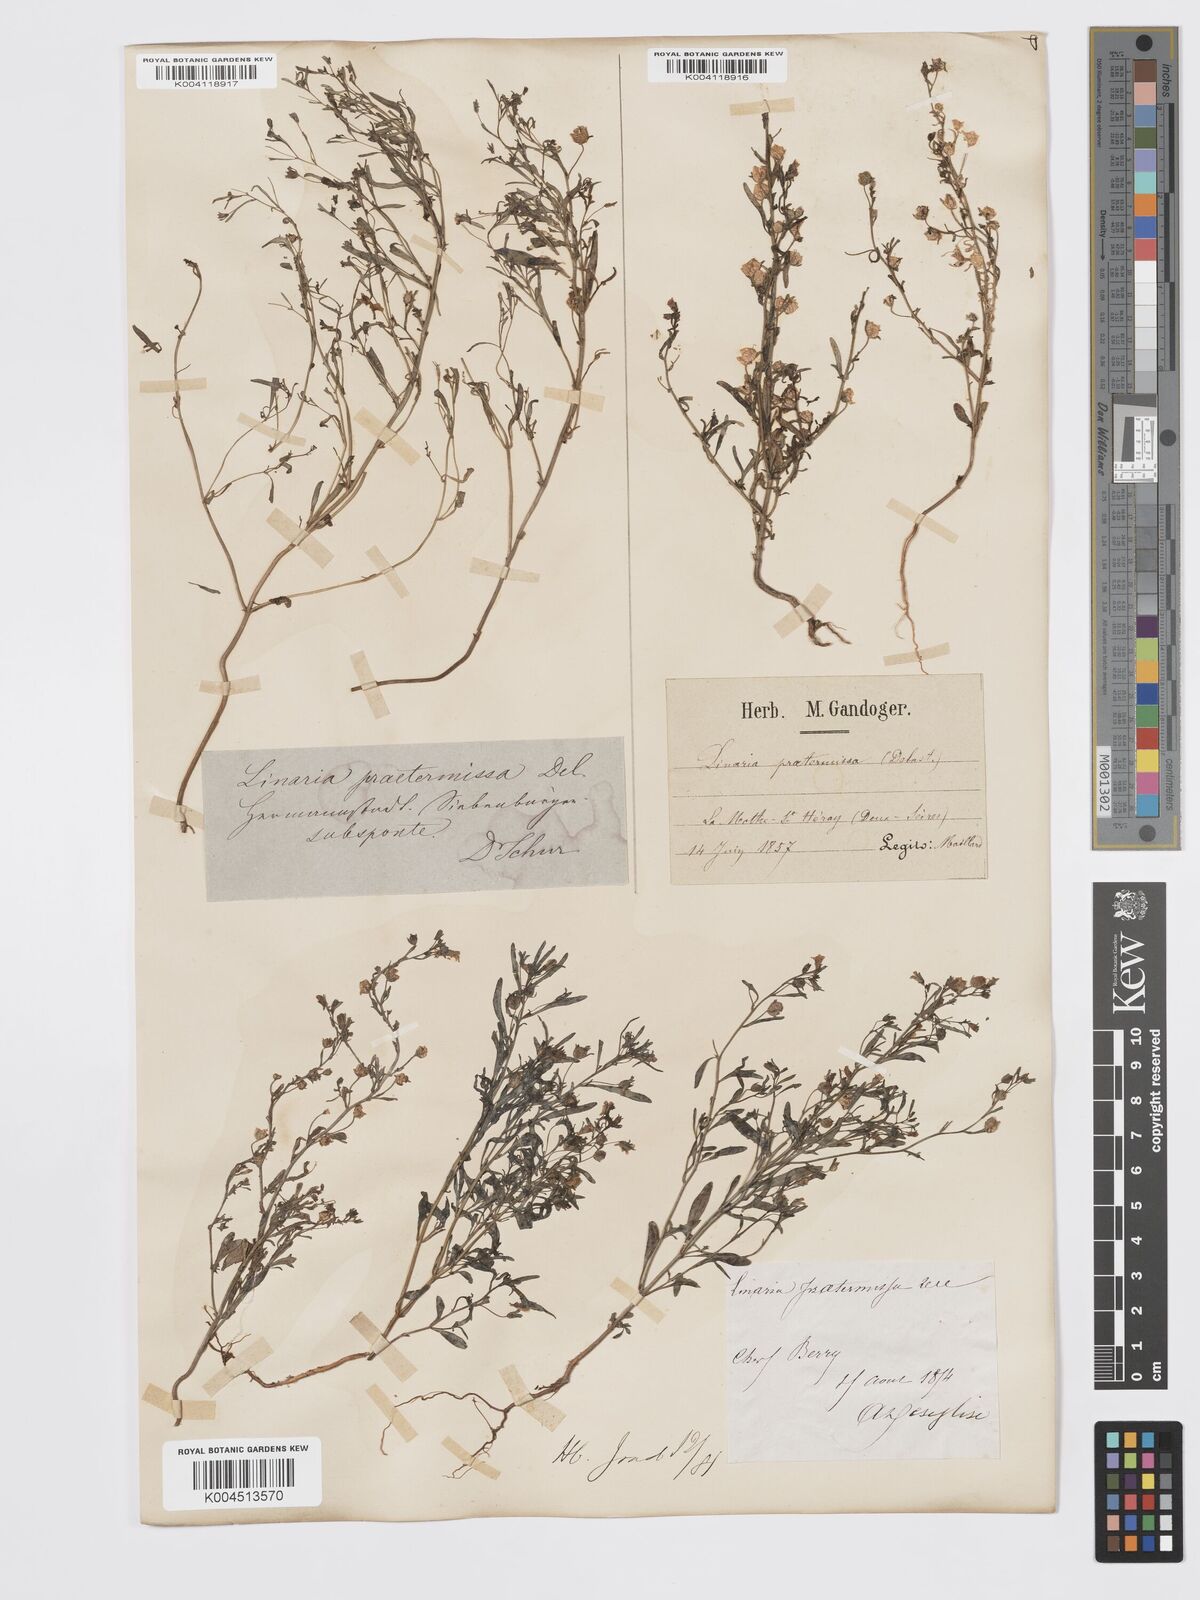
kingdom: Plantae
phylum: Tracheophyta
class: Magnoliopsida
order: Lamiales
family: Plantaginaceae
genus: Chaenorhinum
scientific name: Chaenorhinum minus
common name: Dwarf snapdragon
